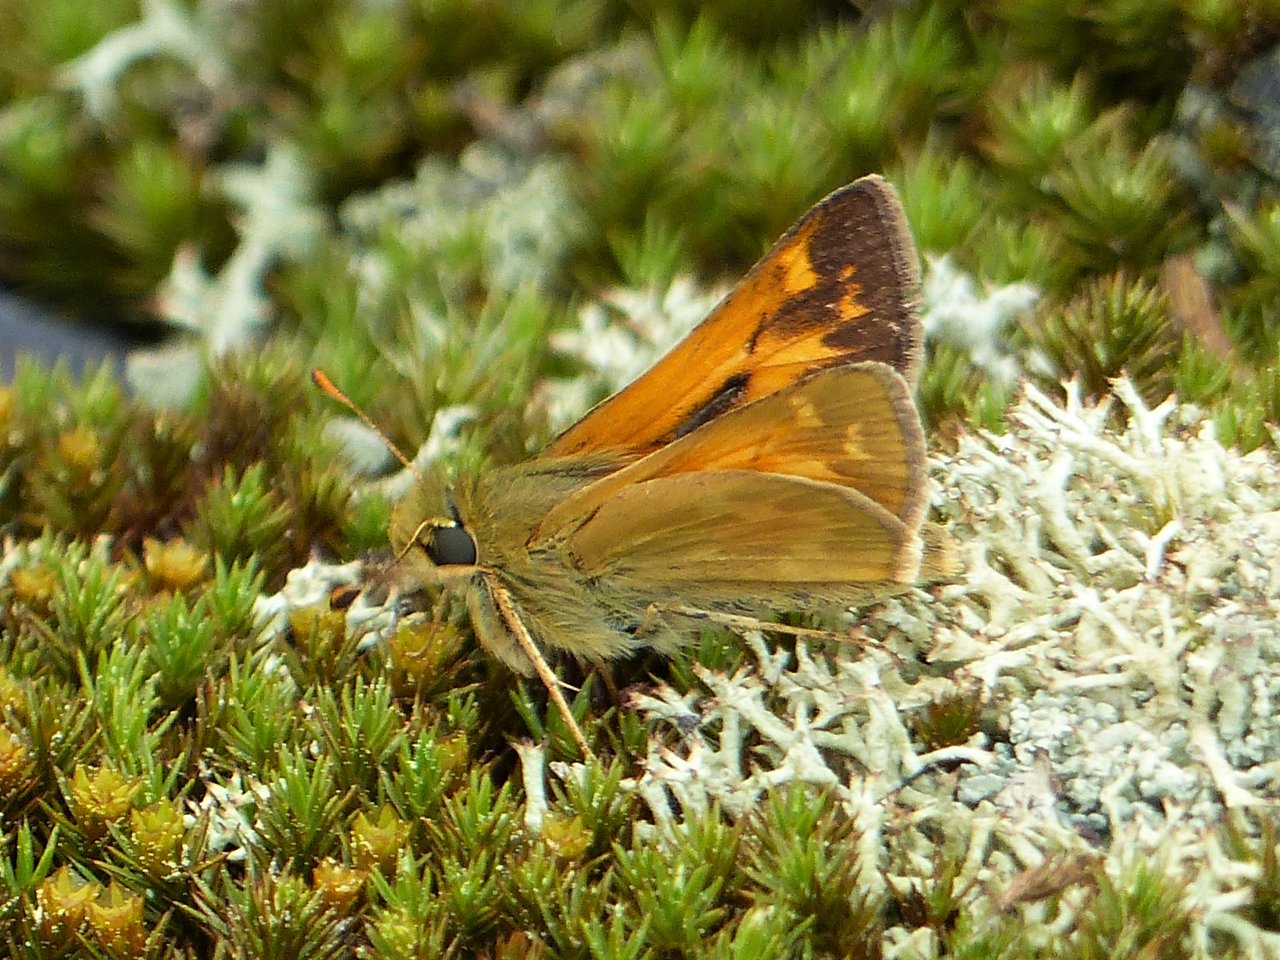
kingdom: Animalia
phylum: Arthropoda
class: Insecta
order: Lepidoptera
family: Hesperiidae
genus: Hesperia
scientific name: Hesperia sassacus
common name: Sassacus Skipper
